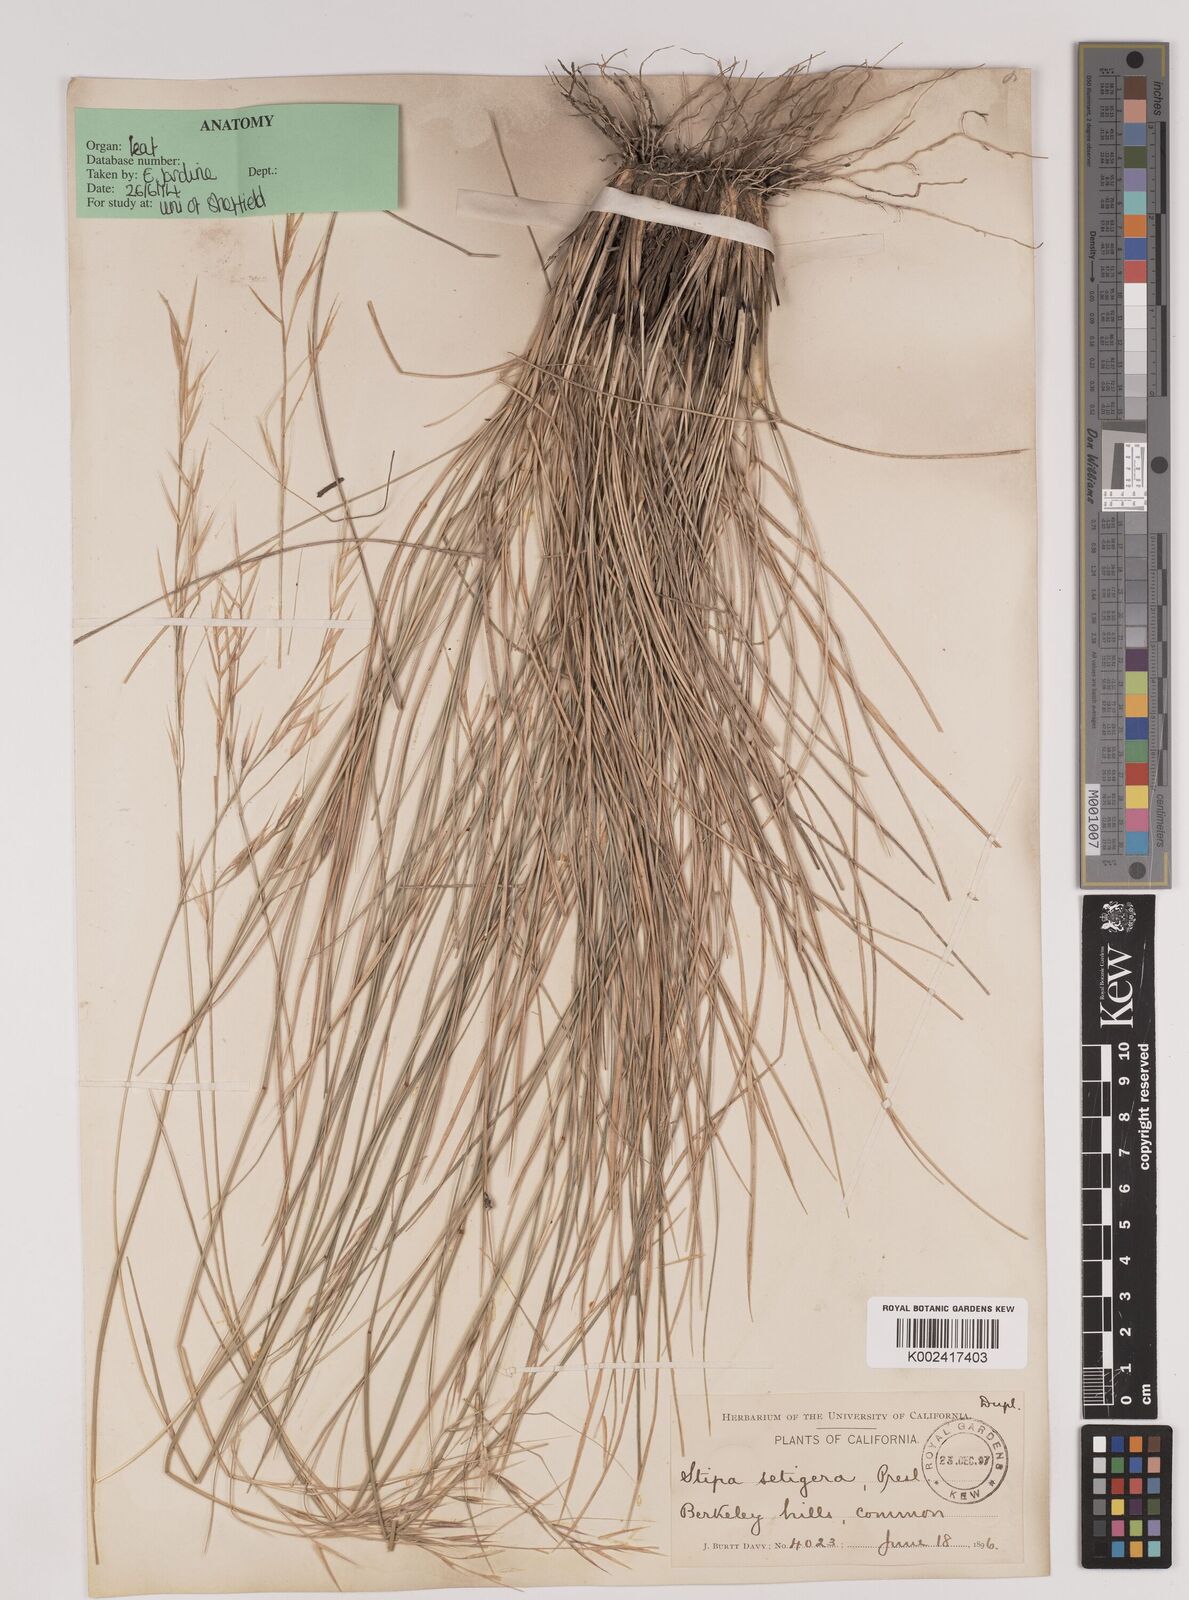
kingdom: Plantae
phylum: Tracheophyta
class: Liliopsida
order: Poales
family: Poaceae
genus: Nassella
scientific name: Nassella mucronata
